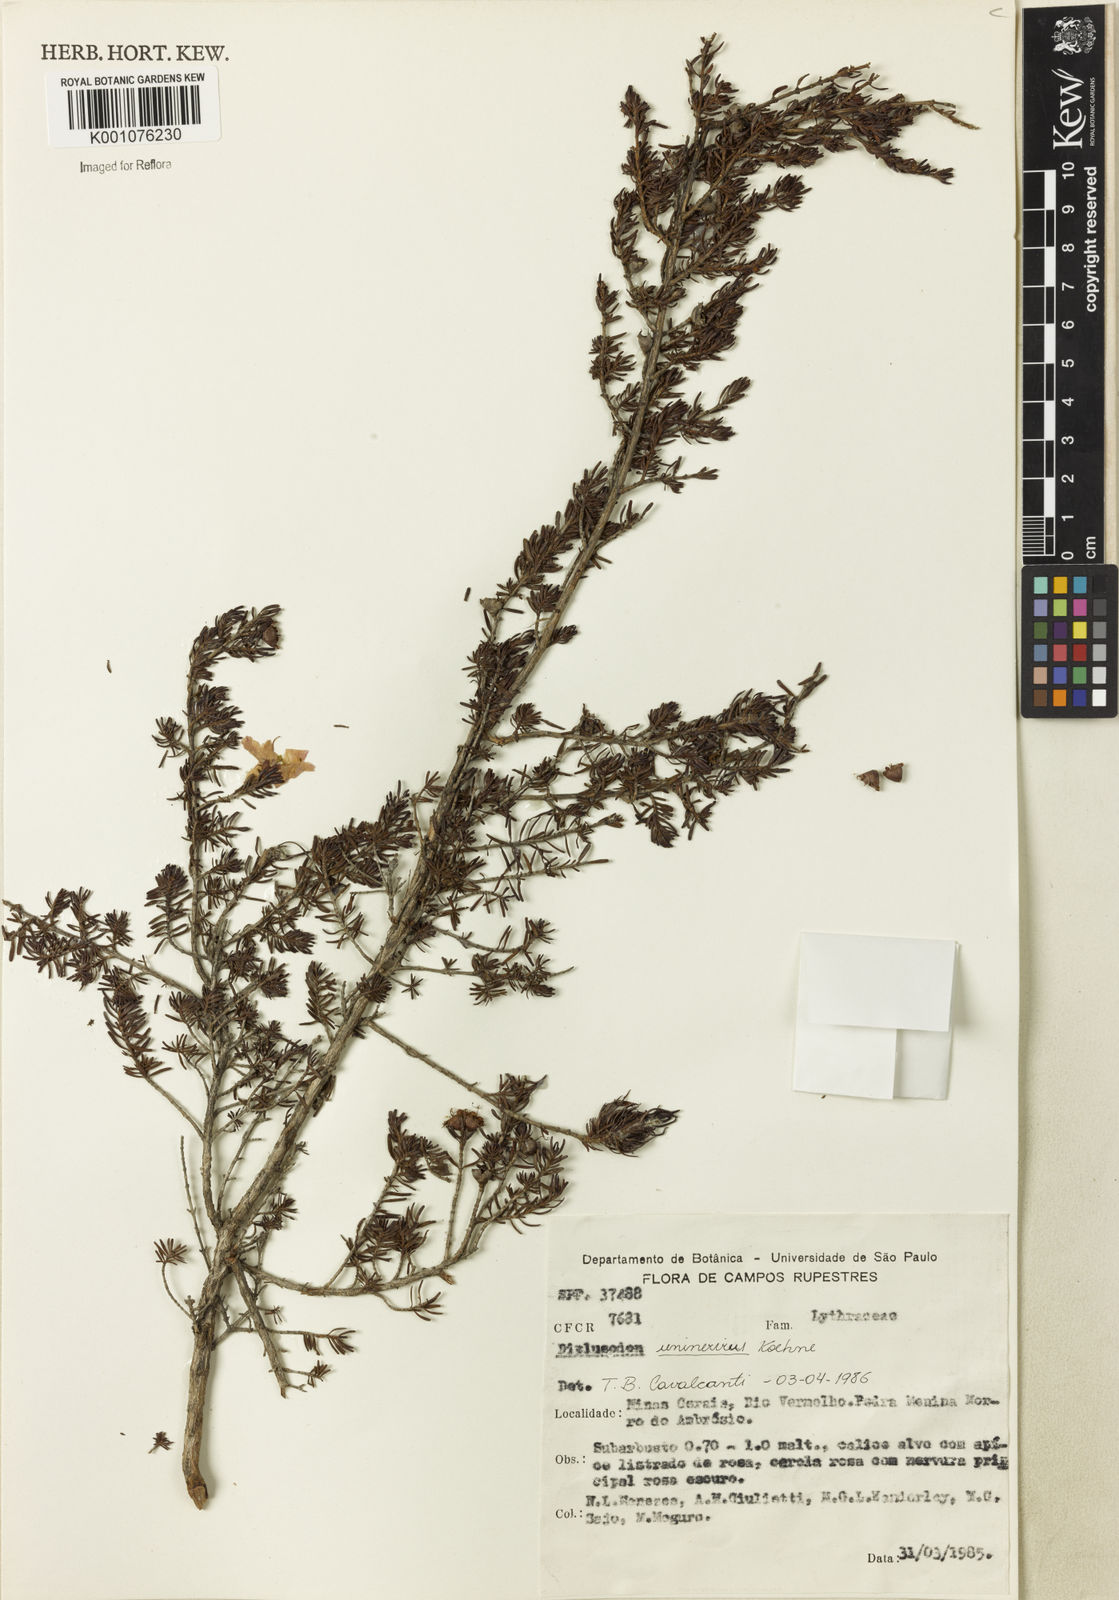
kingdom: Plantae
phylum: Tracheophyta
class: Magnoliopsida
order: Myrtales
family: Lythraceae
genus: Diplusodon
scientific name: Diplusodon uninervius
